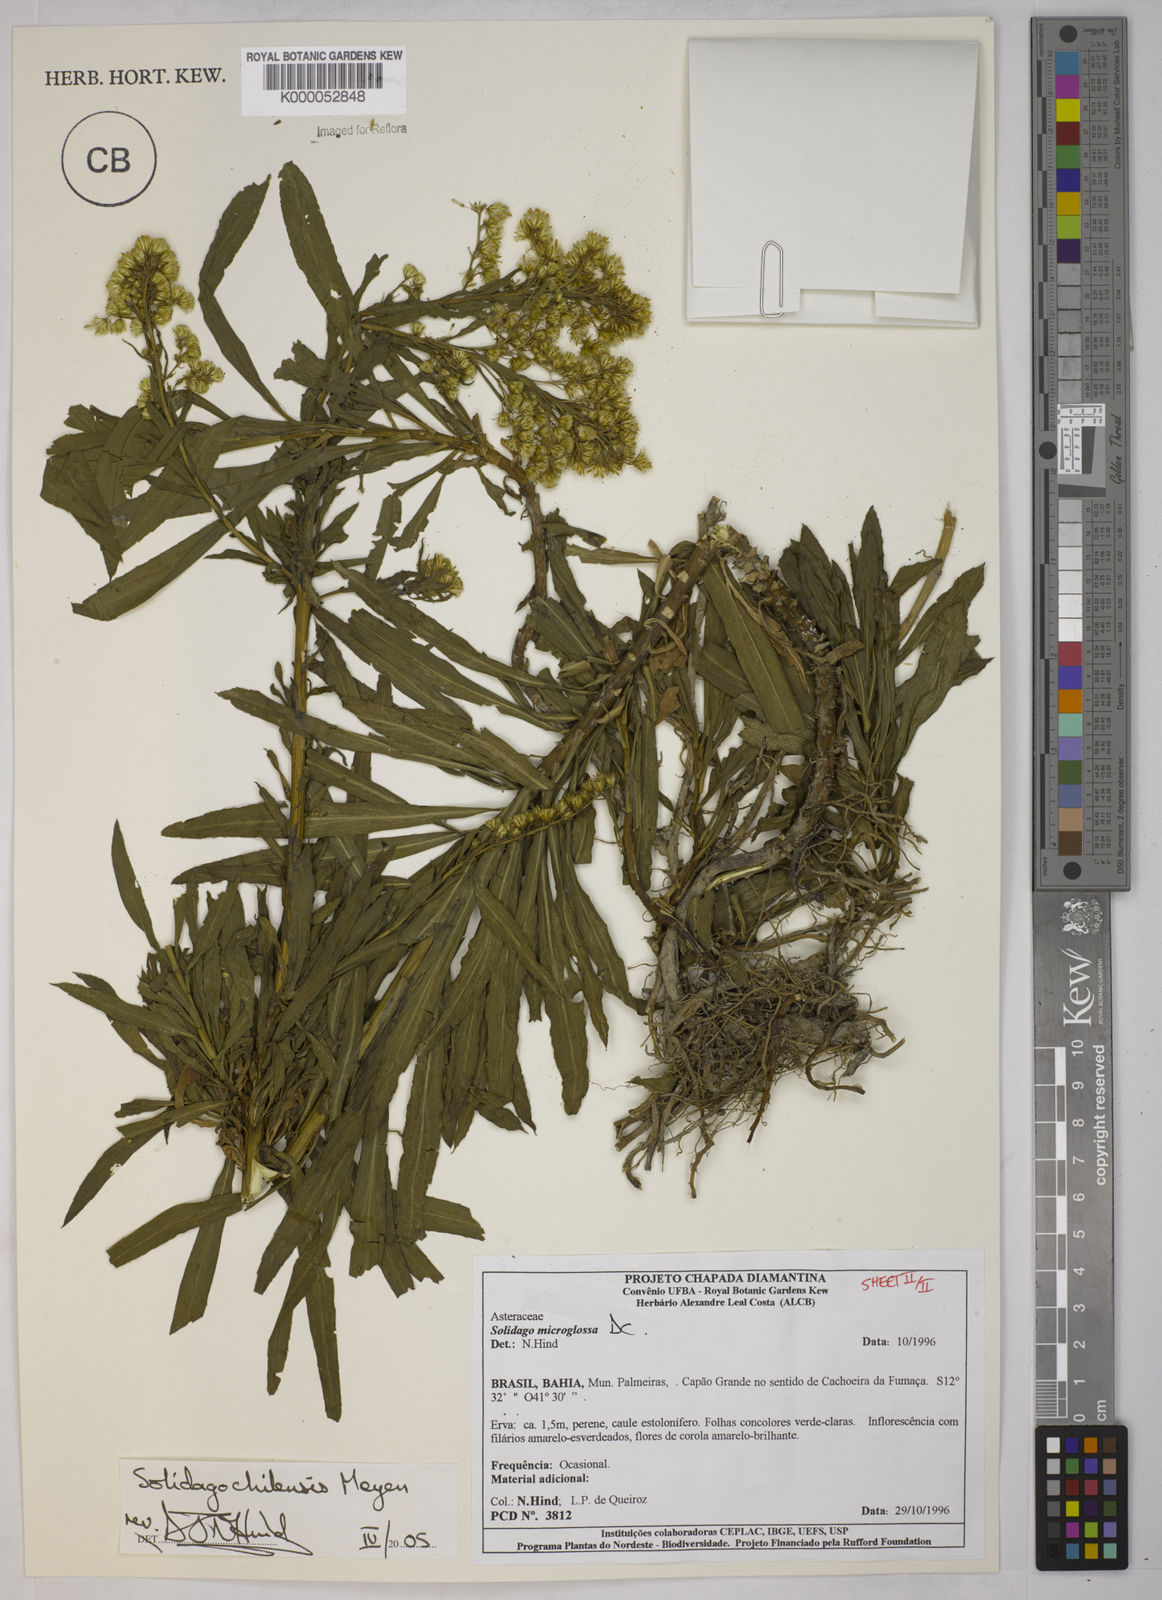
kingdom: Plantae
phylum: Tracheophyta
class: Magnoliopsida
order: Asterales
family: Asteraceae
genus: Solidago
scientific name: Solidago chilensis
